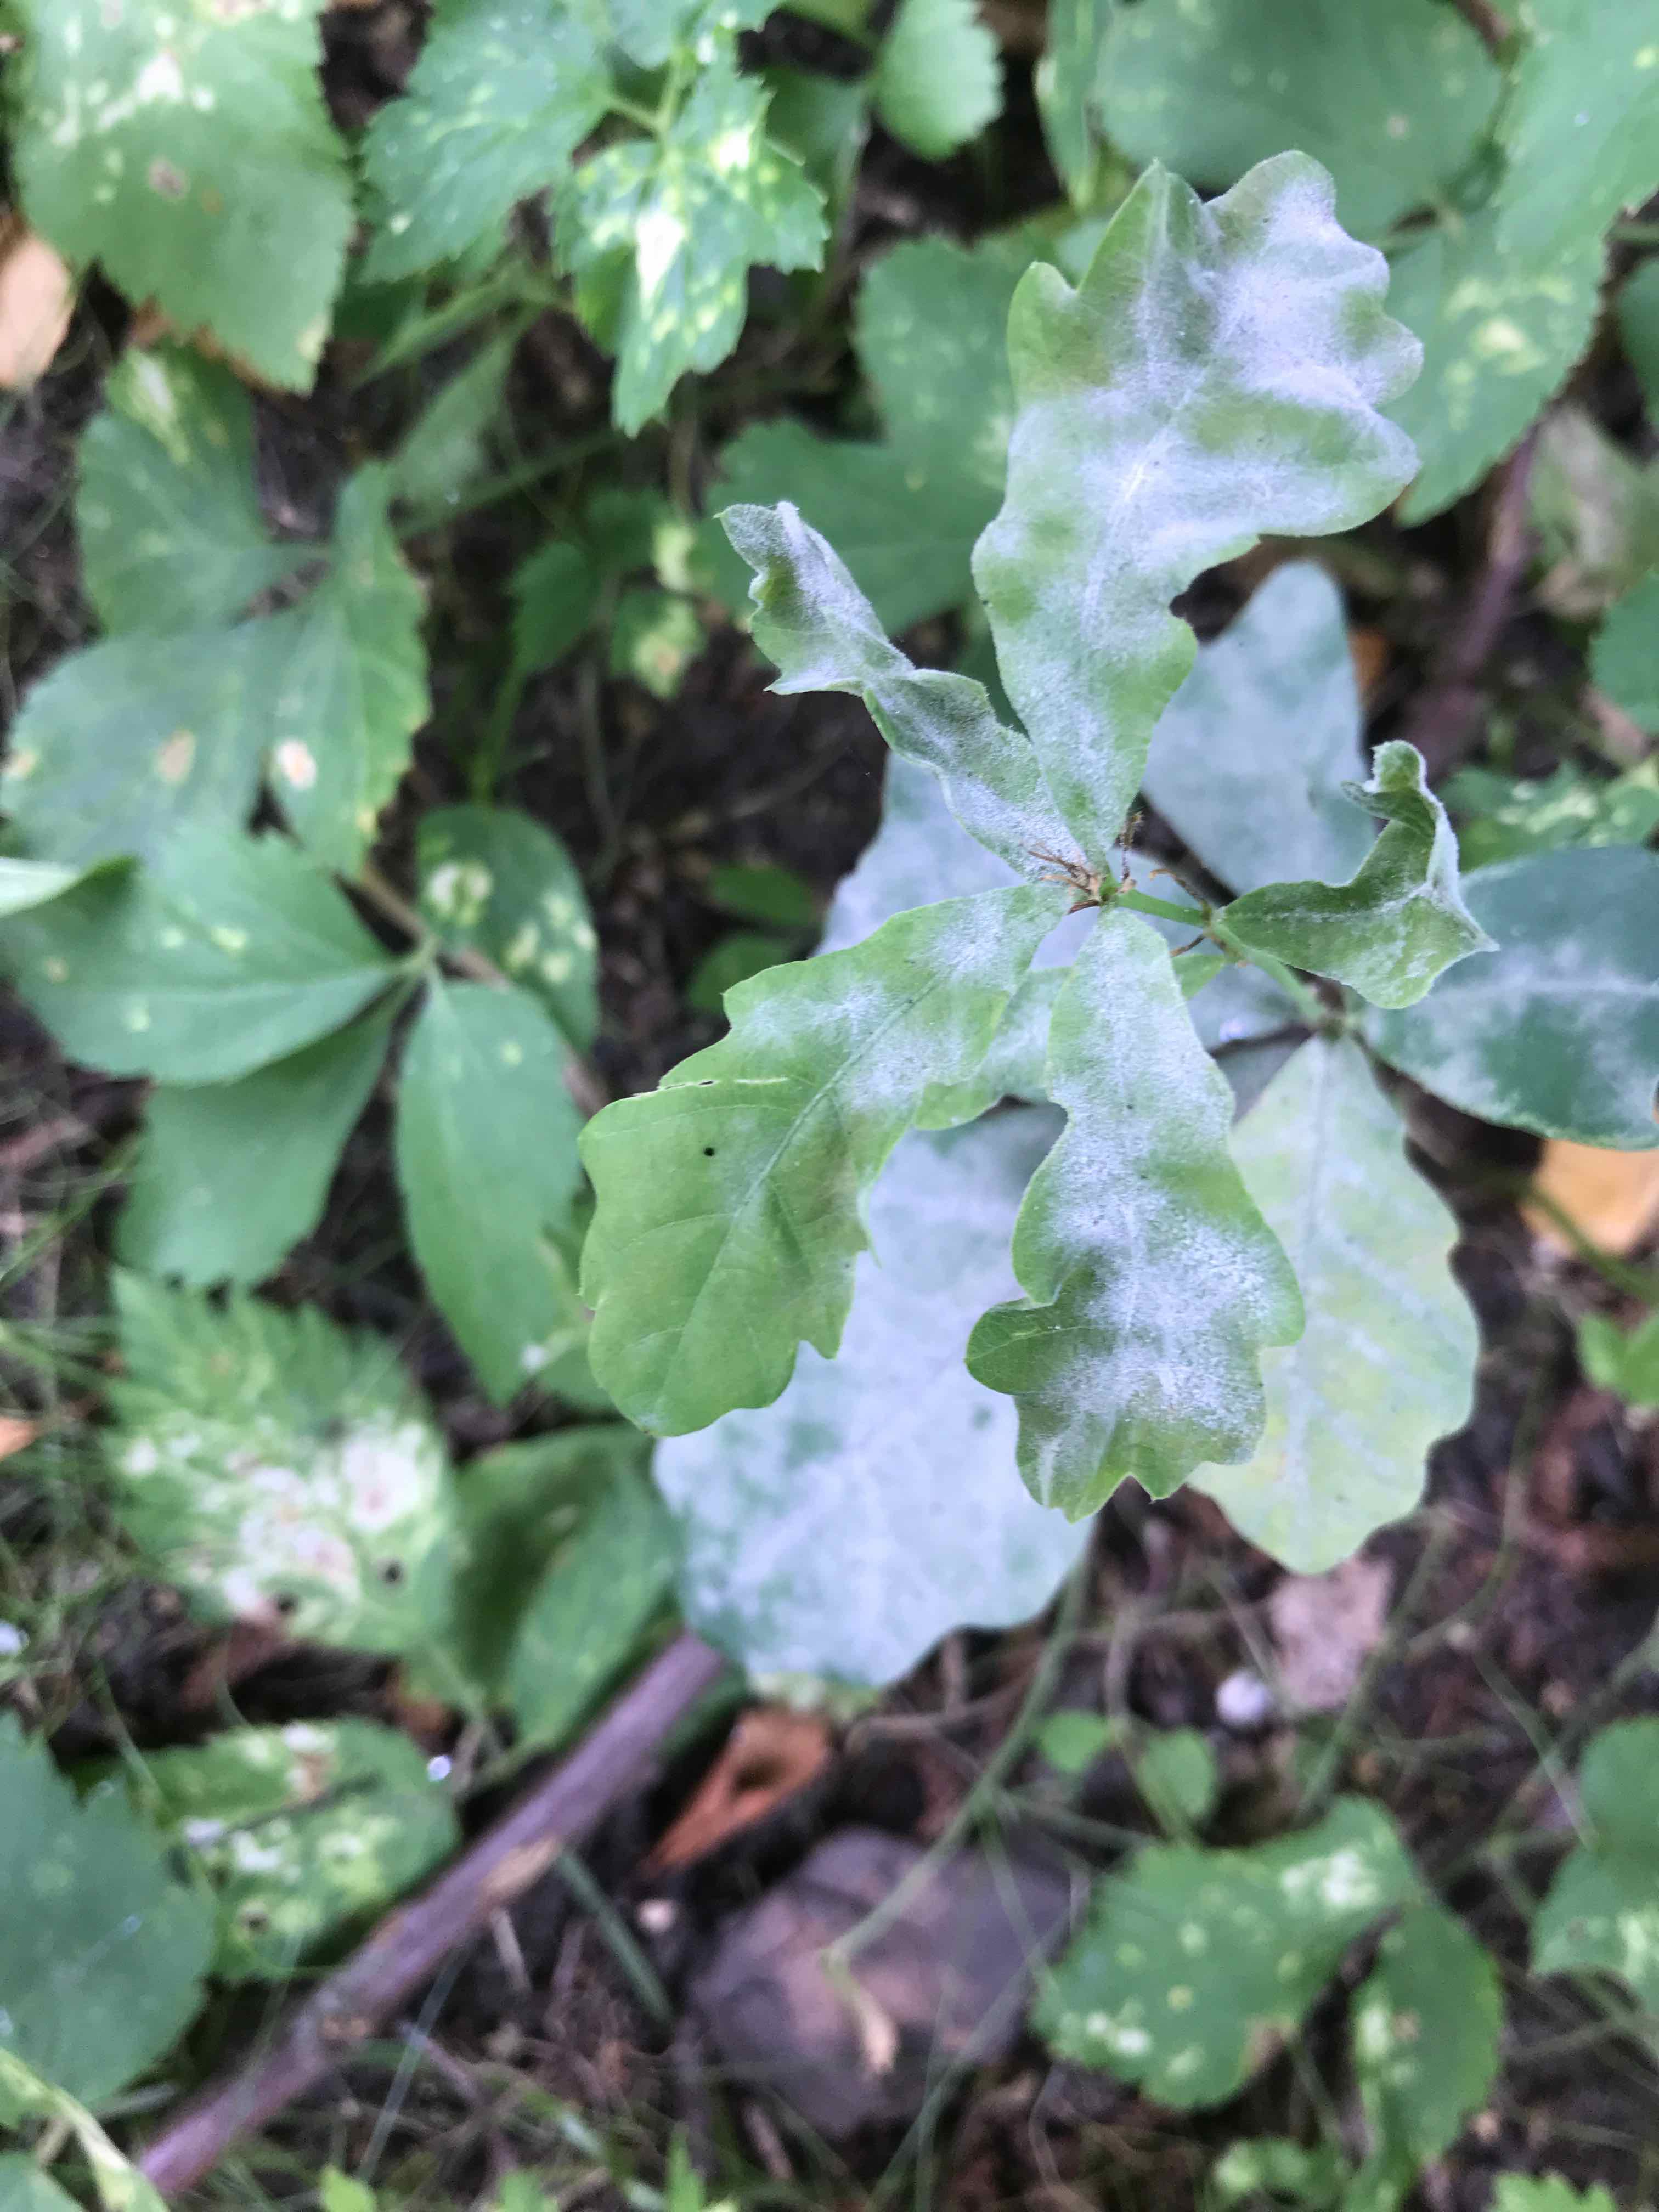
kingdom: Fungi
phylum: Ascomycota
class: Leotiomycetes
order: Helotiales
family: Erysiphaceae
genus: Erysiphe
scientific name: Erysiphe alphitoides
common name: ege-meldug
